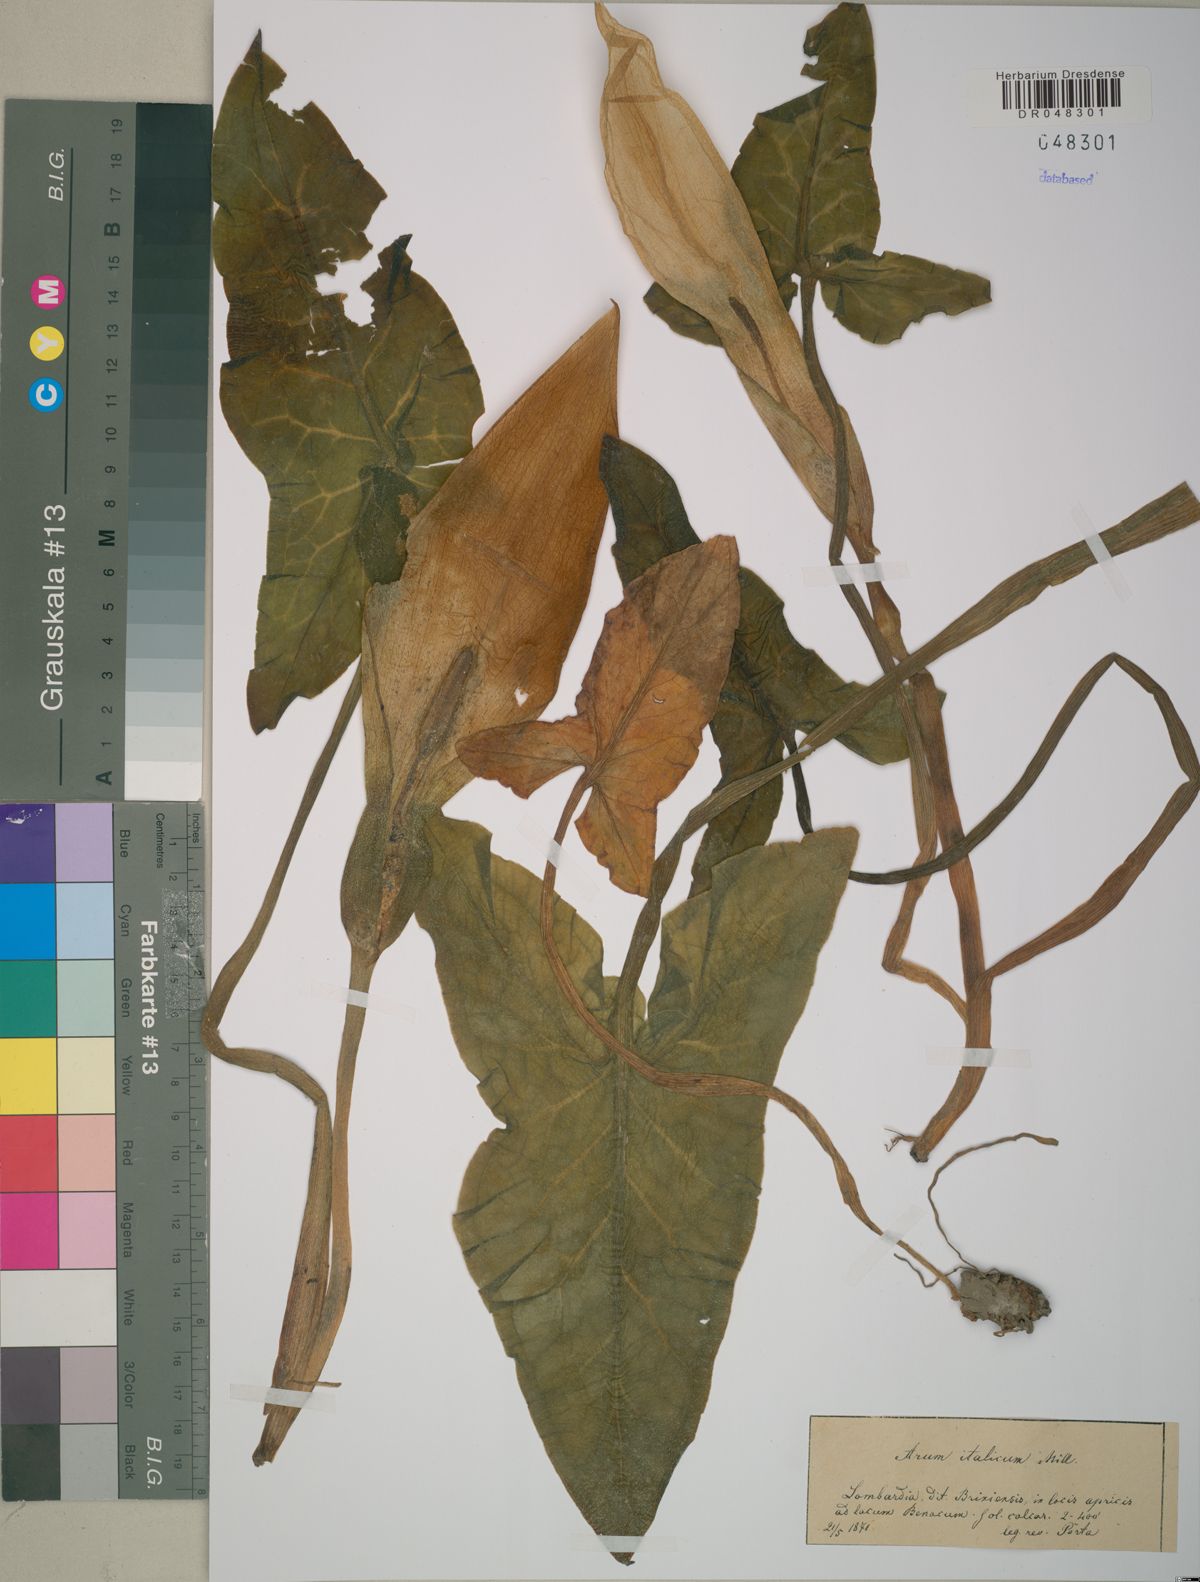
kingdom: Plantae
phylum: Tracheophyta
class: Liliopsida
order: Alismatales
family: Araceae
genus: Arum
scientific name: Arum italicum
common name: Italian lords-and-ladies
